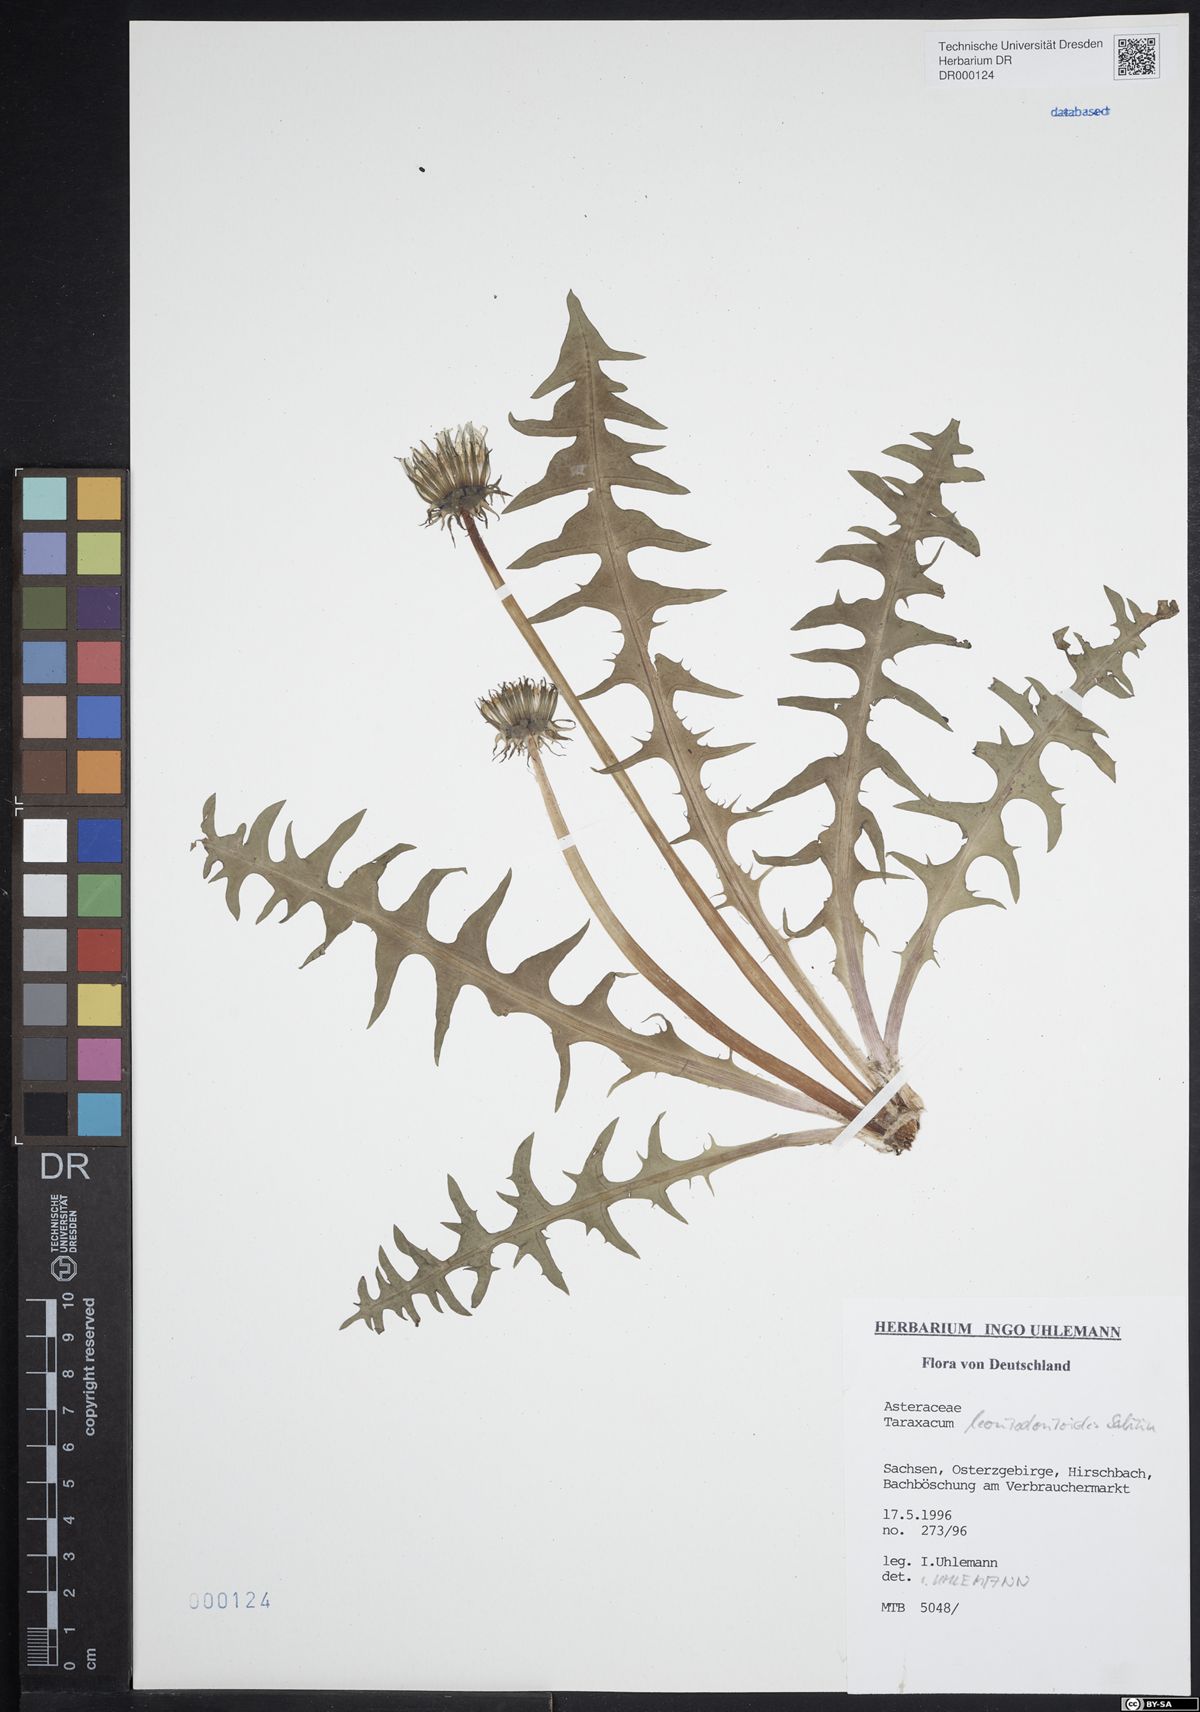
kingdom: Plantae
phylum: Tracheophyta
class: Magnoliopsida
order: Asterales
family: Asteraceae
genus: Taraxacum
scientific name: Taraxacum gentile
